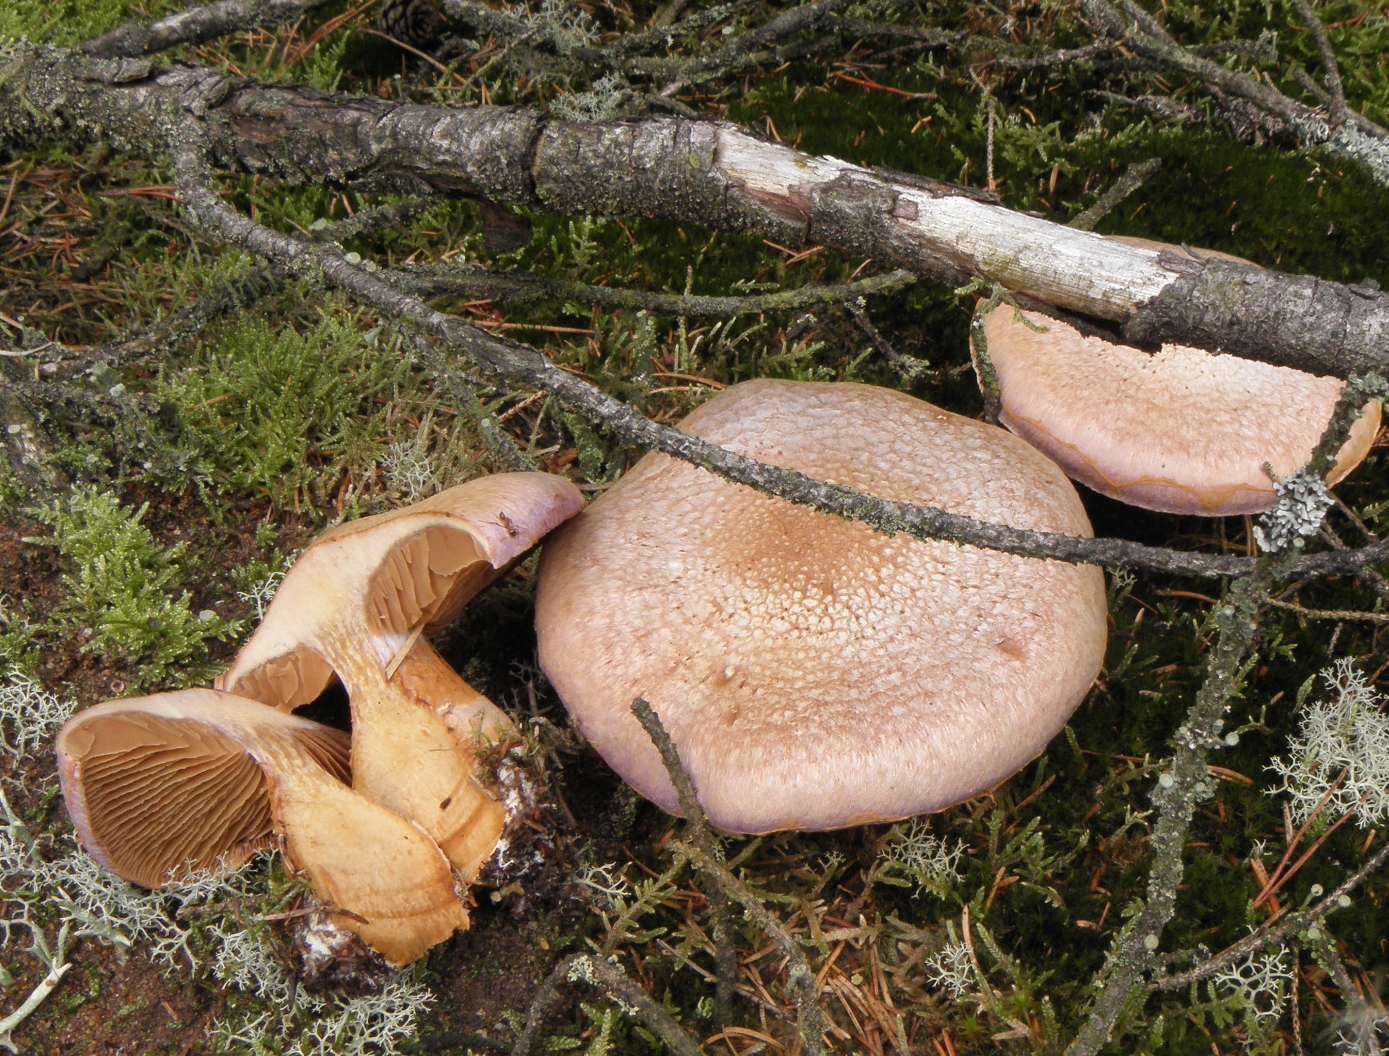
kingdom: Fungi
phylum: Basidiomycota
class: Agaricomycetes
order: Agaricales
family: Cortinariaceae
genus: Cortinarius
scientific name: Cortinarius traganus
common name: safrankødet slørhat
